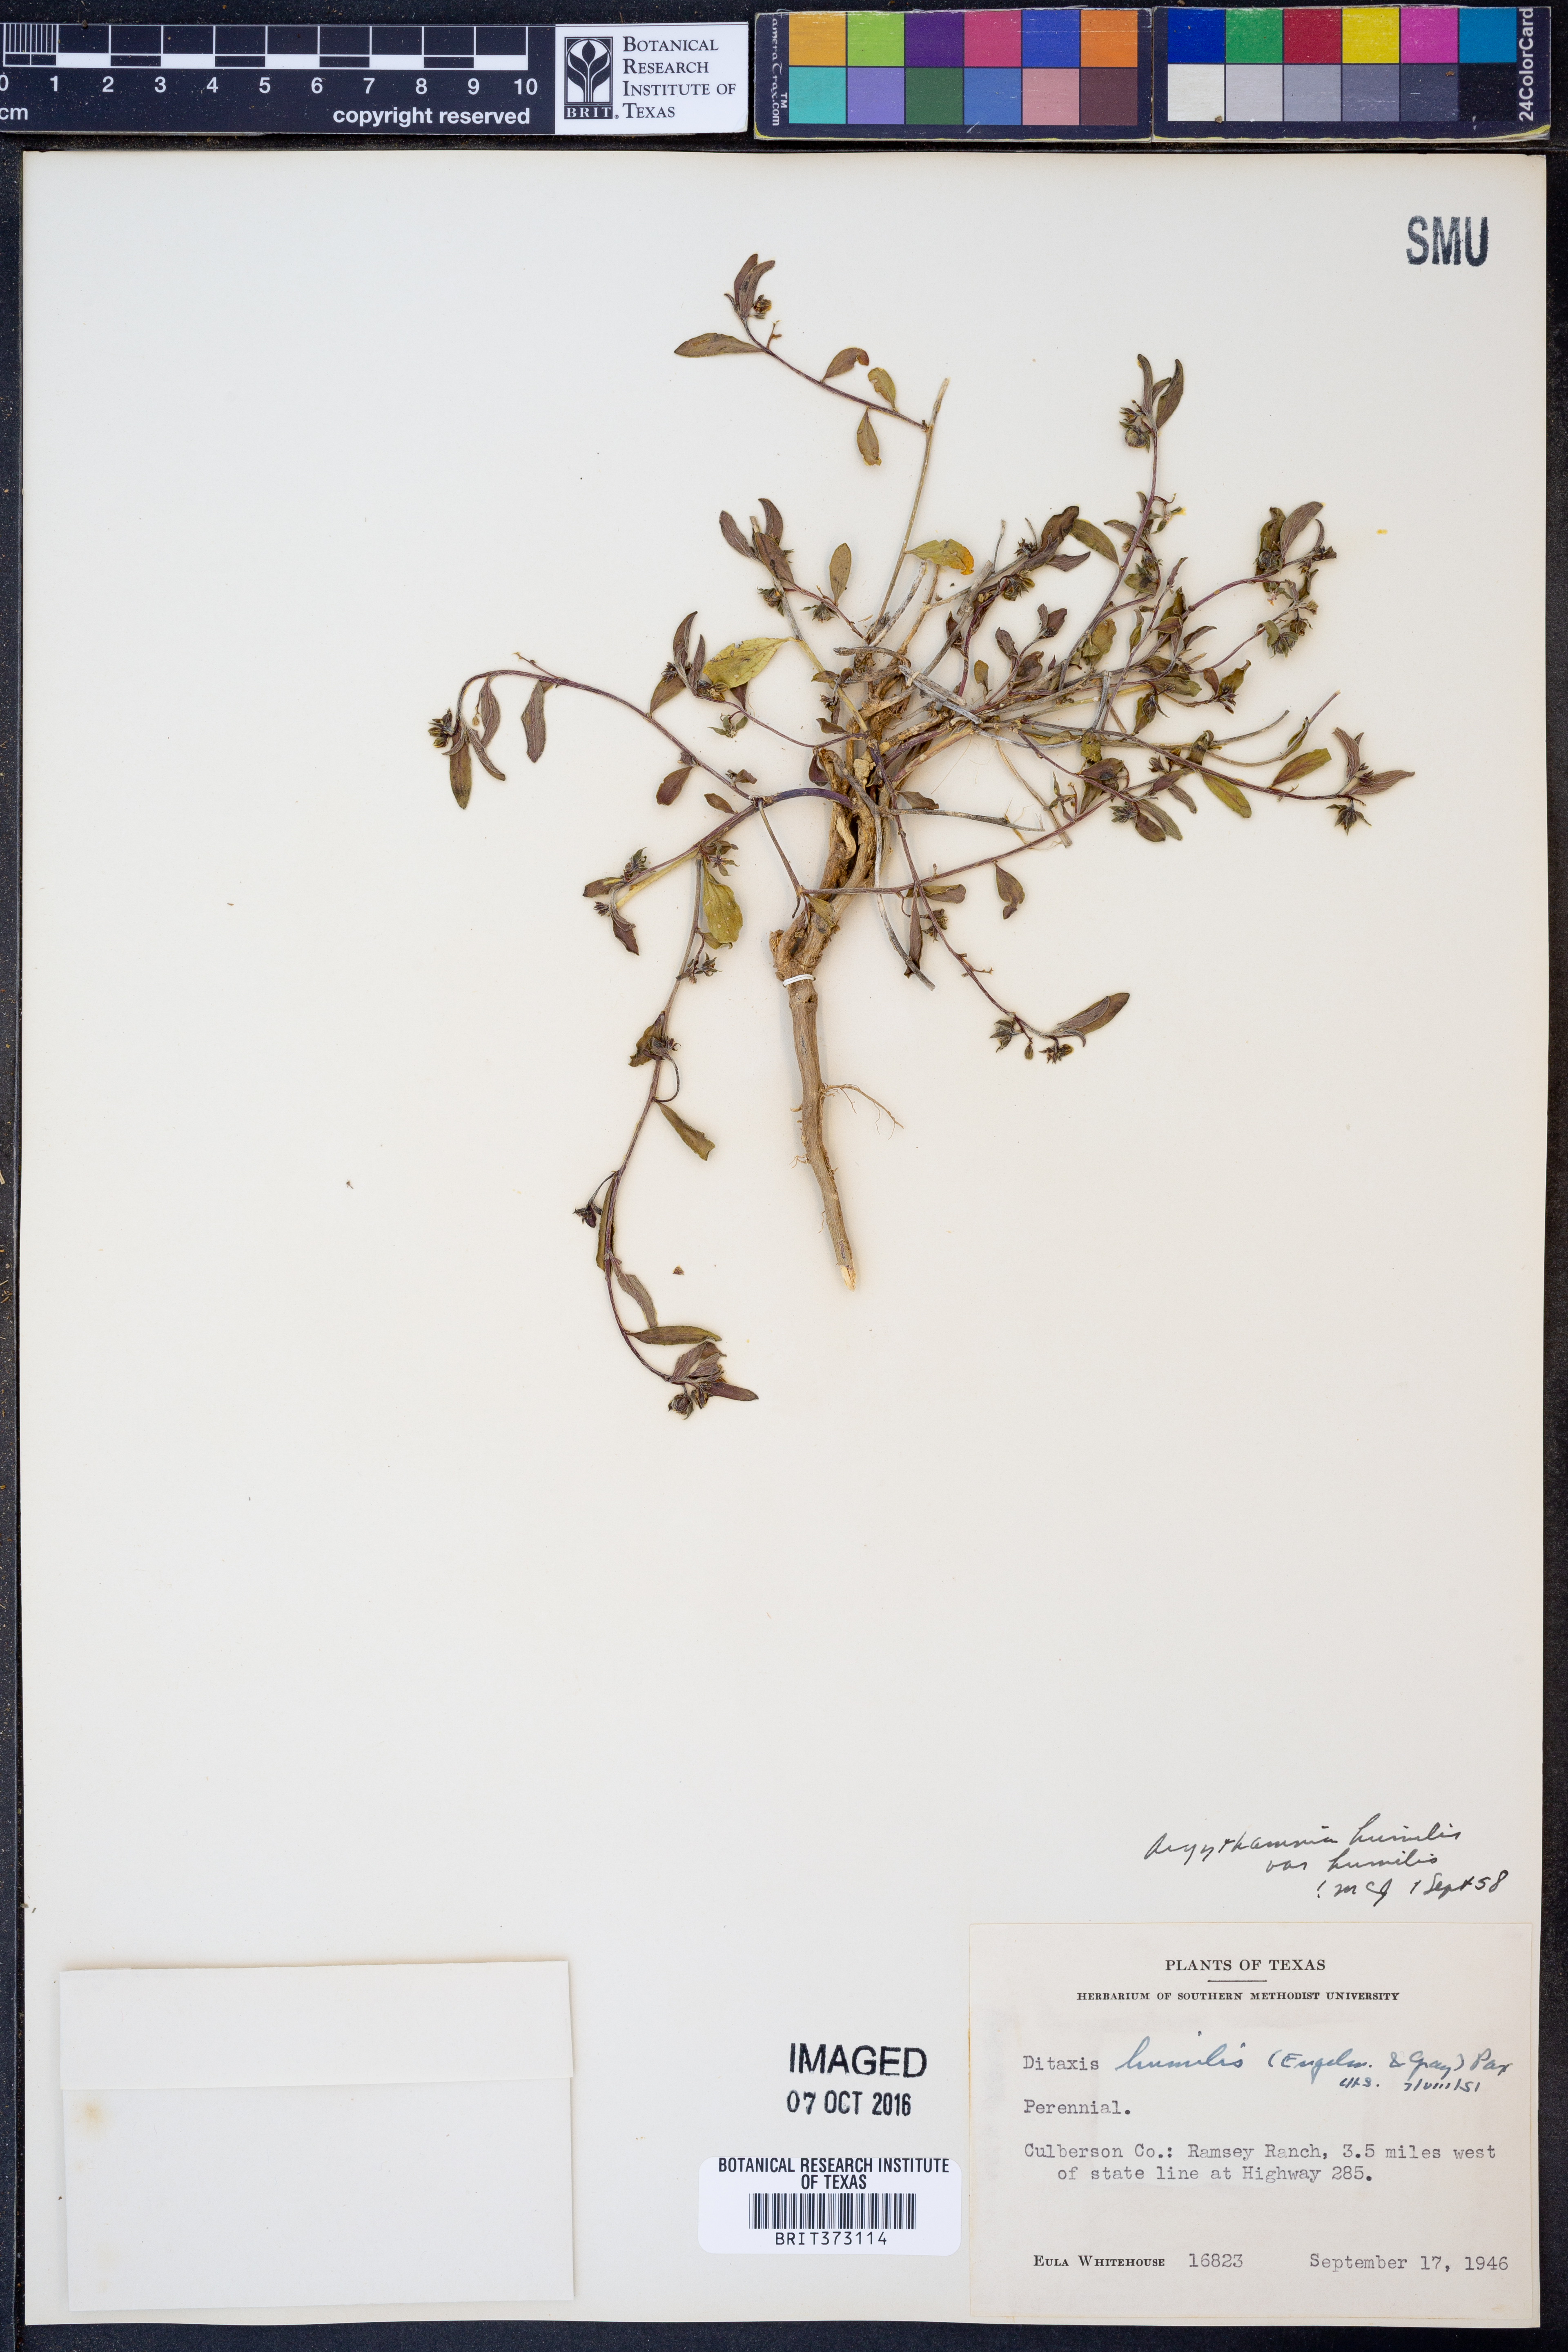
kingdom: Plantae
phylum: Tracheophyta
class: Magnoliopsida
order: Malpighiales
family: Euphorbiaceae
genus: Ditaxis
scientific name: Ditaxis humilis
